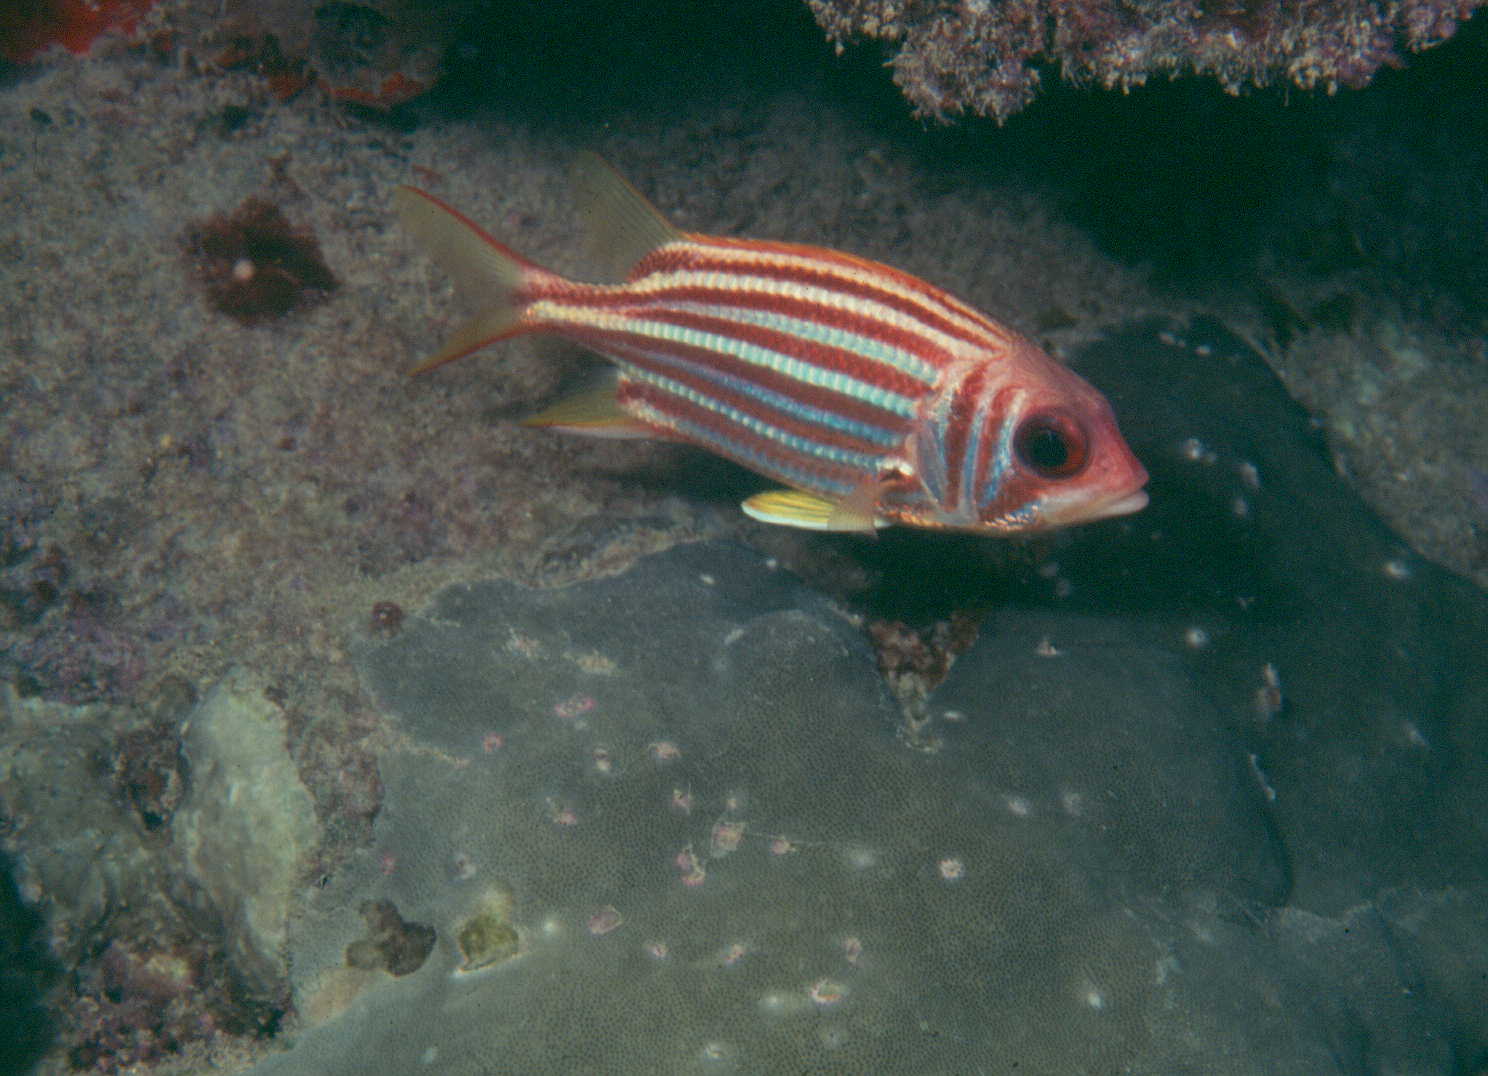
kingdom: Animalia
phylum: Chordata
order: Beryciformes
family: Holocentridae
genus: Sargocentron
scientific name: Sargocentron seychellense
